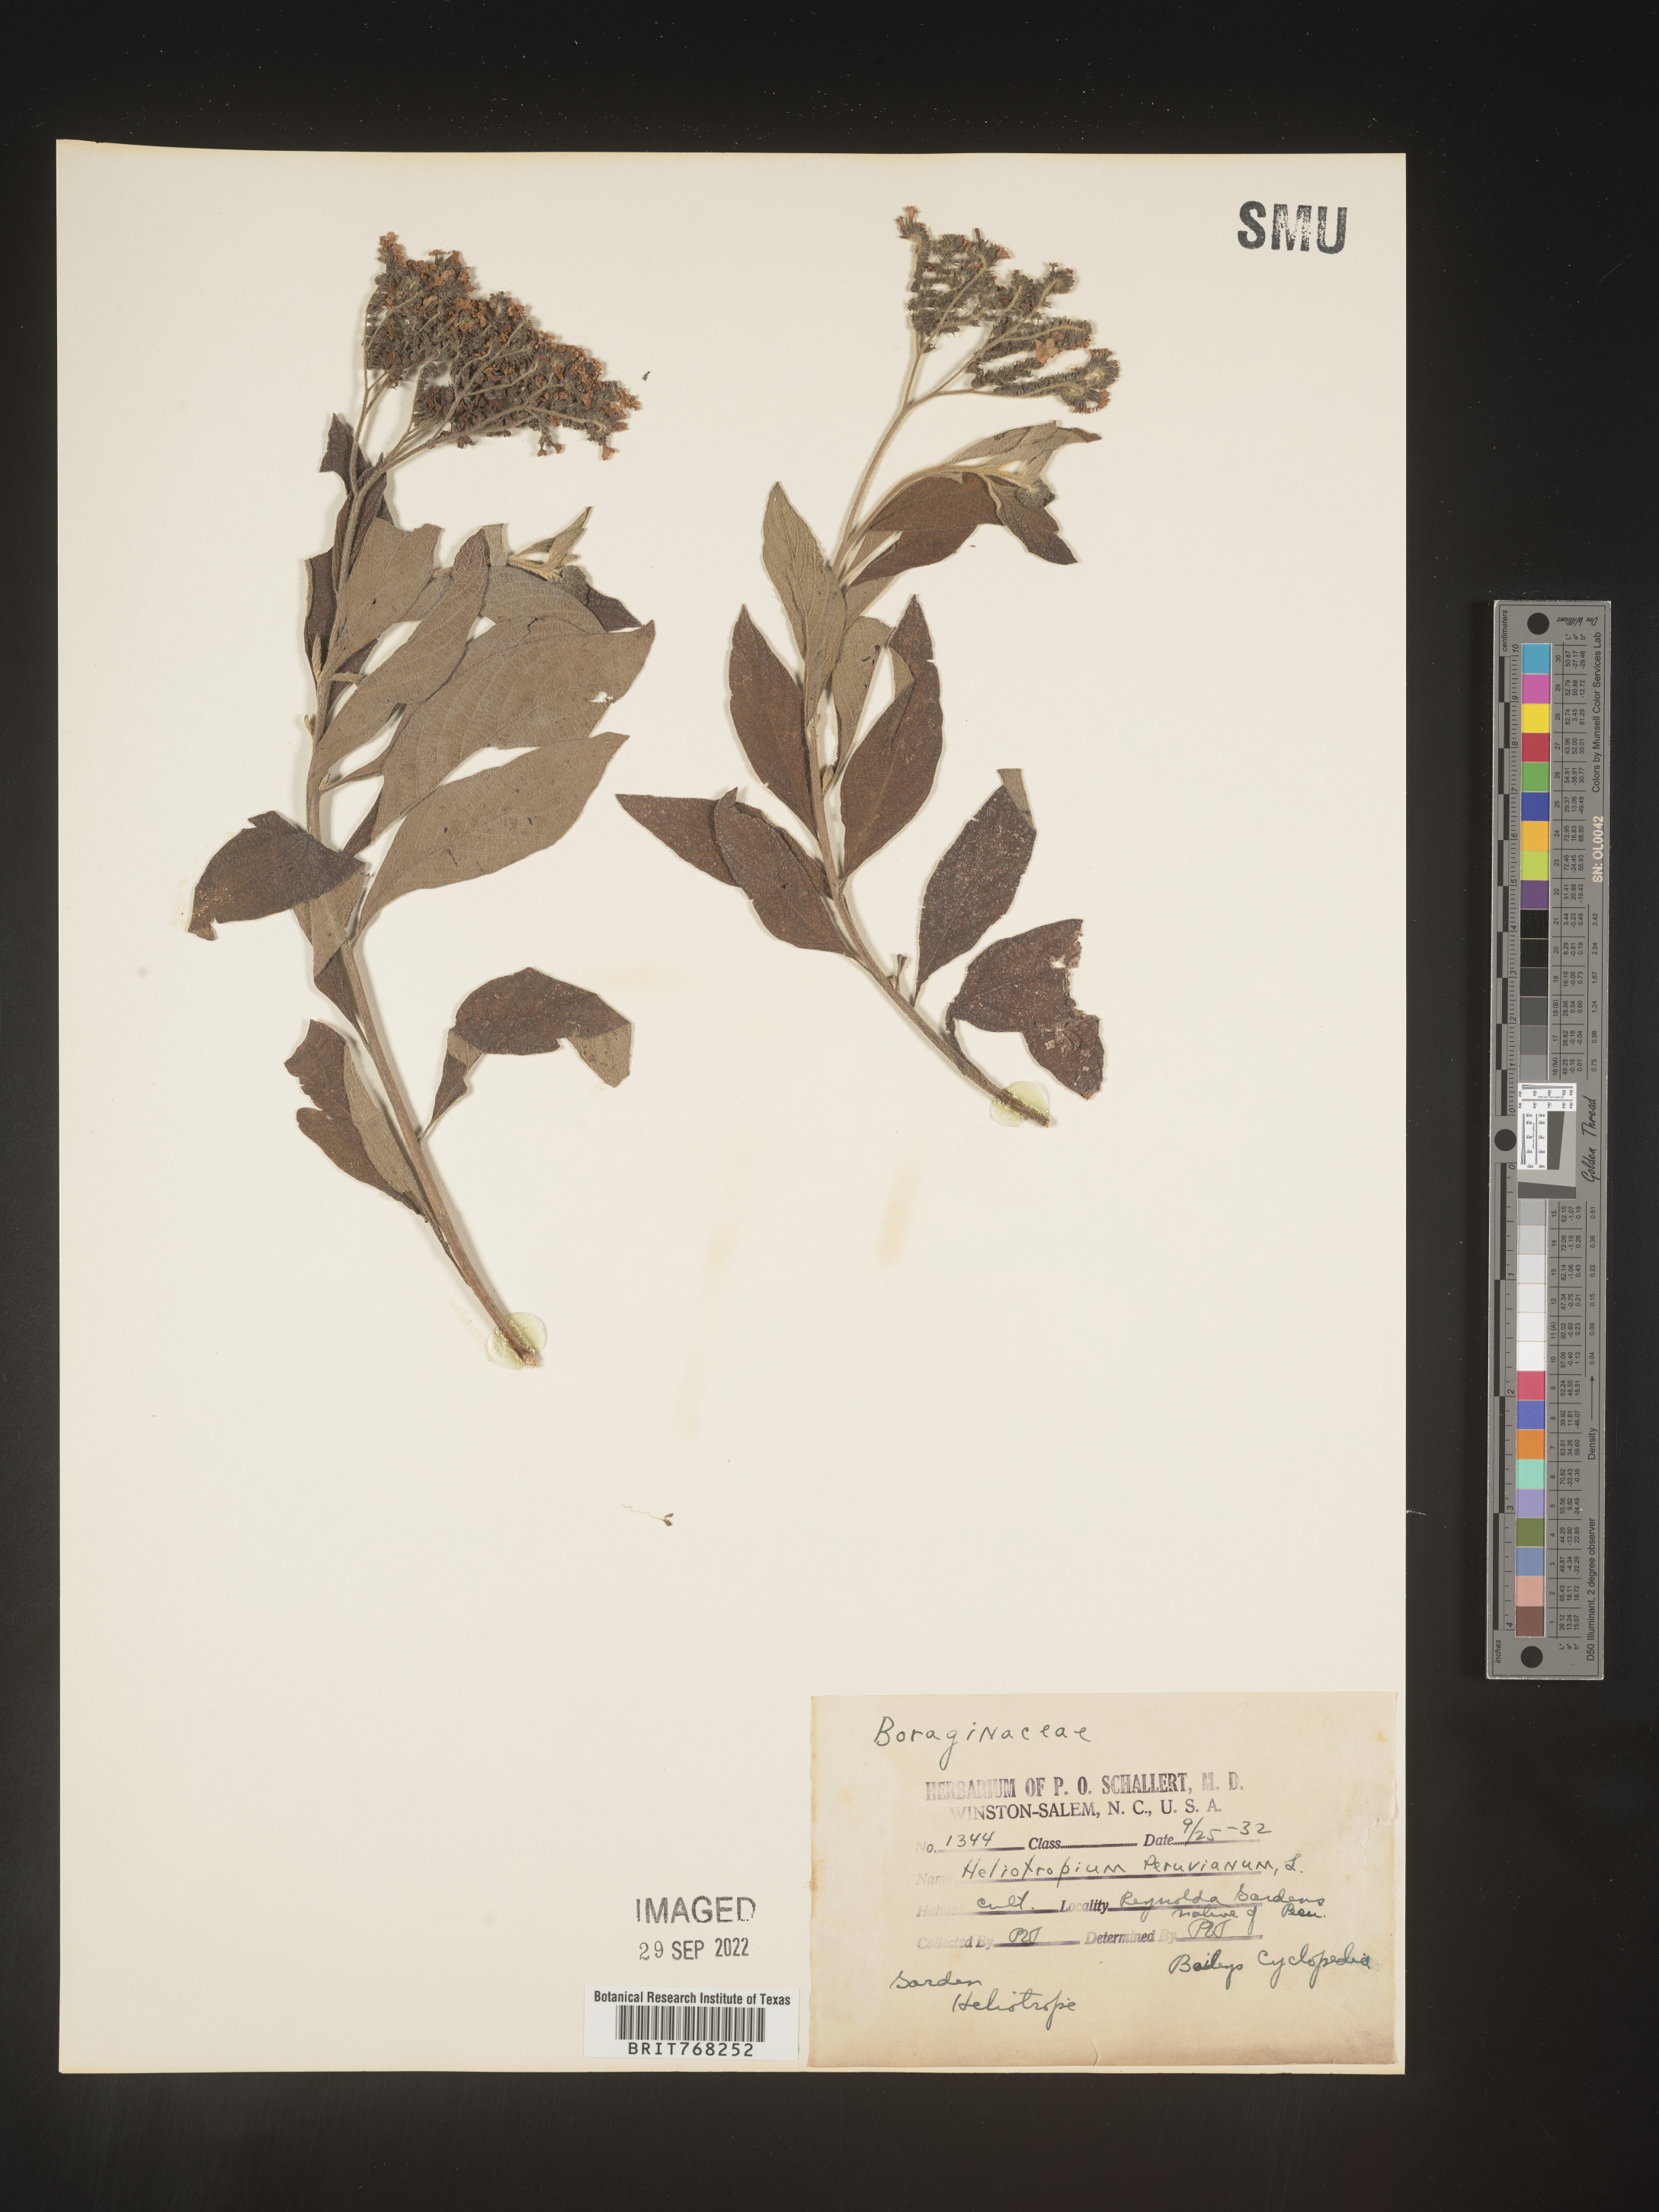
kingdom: Plantae
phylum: Tracheophyta
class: Magnoliopsida
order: Boraginales
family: Heliotropiaceae
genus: Heliotropium
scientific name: Heliotropium
